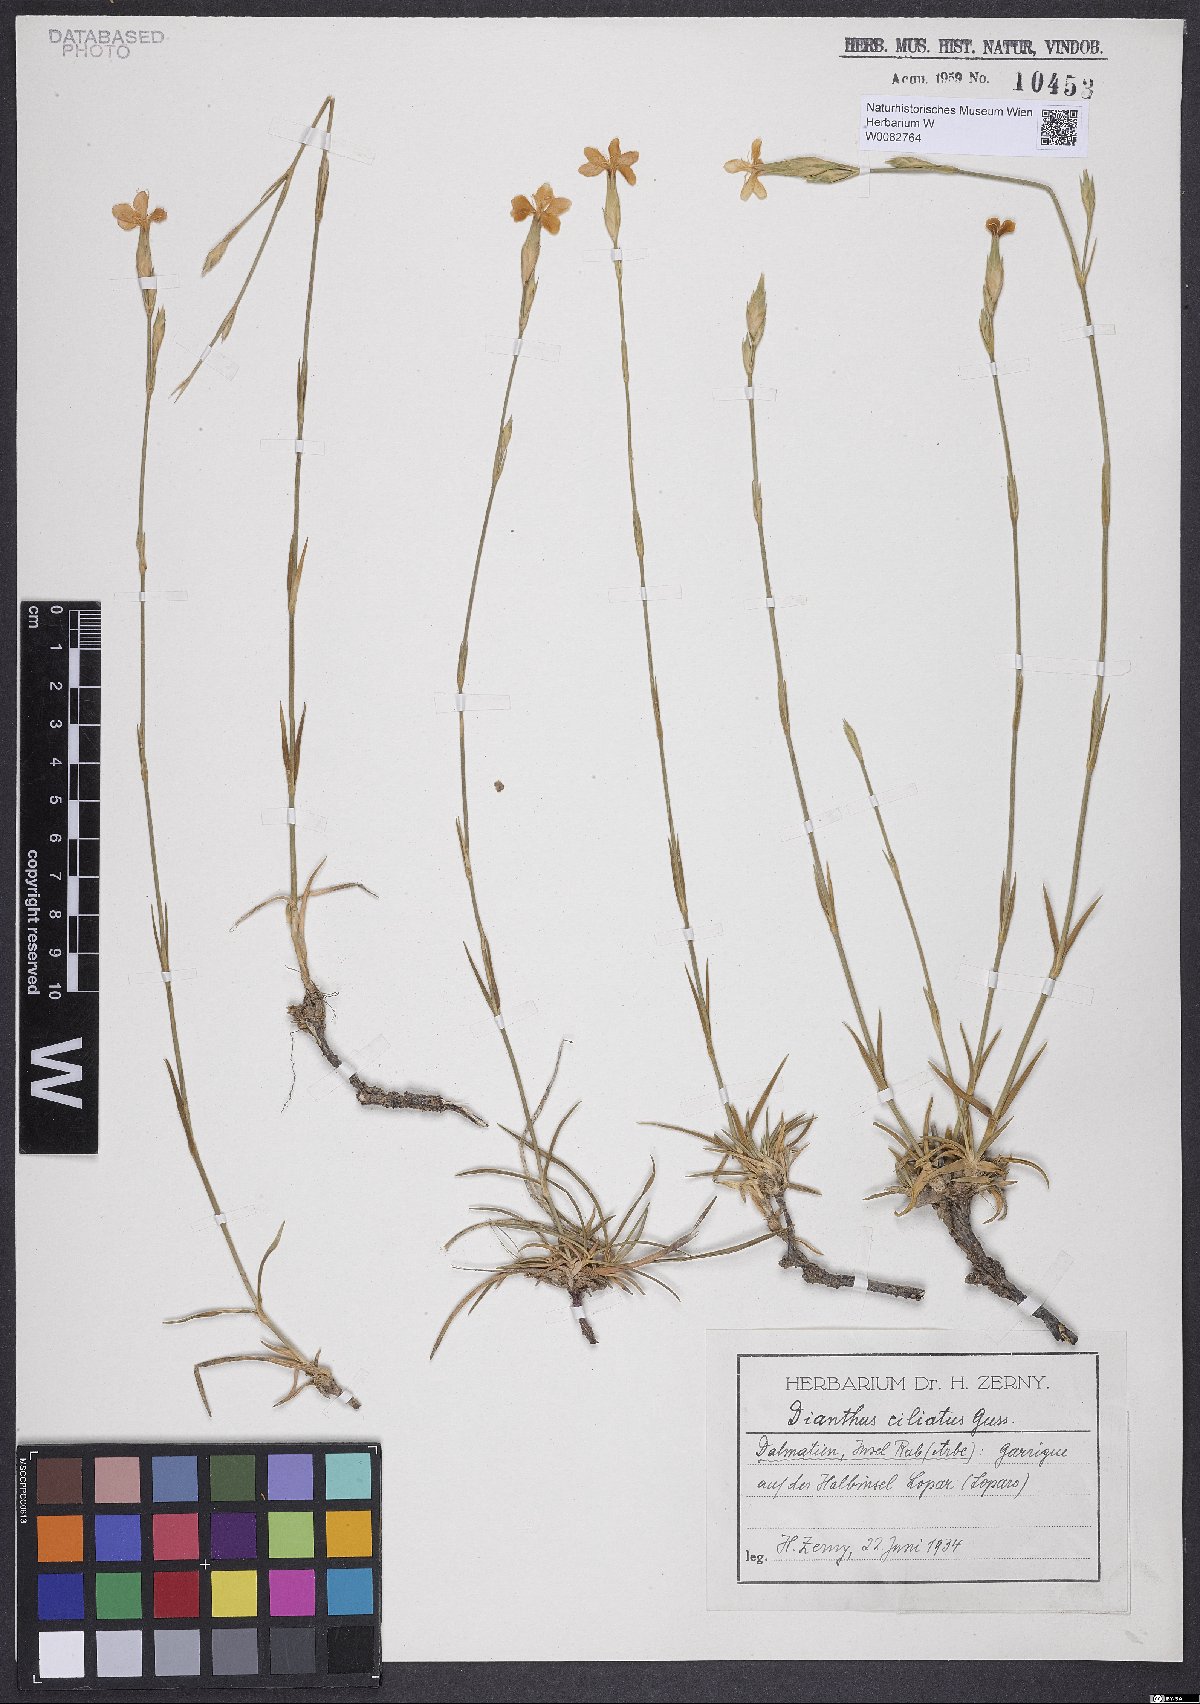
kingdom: Plantae
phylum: Tracheophyta
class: Magnoliopsida
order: Caryophyllales
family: Caryophyllaceae
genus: Dianthus
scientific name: Dianthus ciliatus
